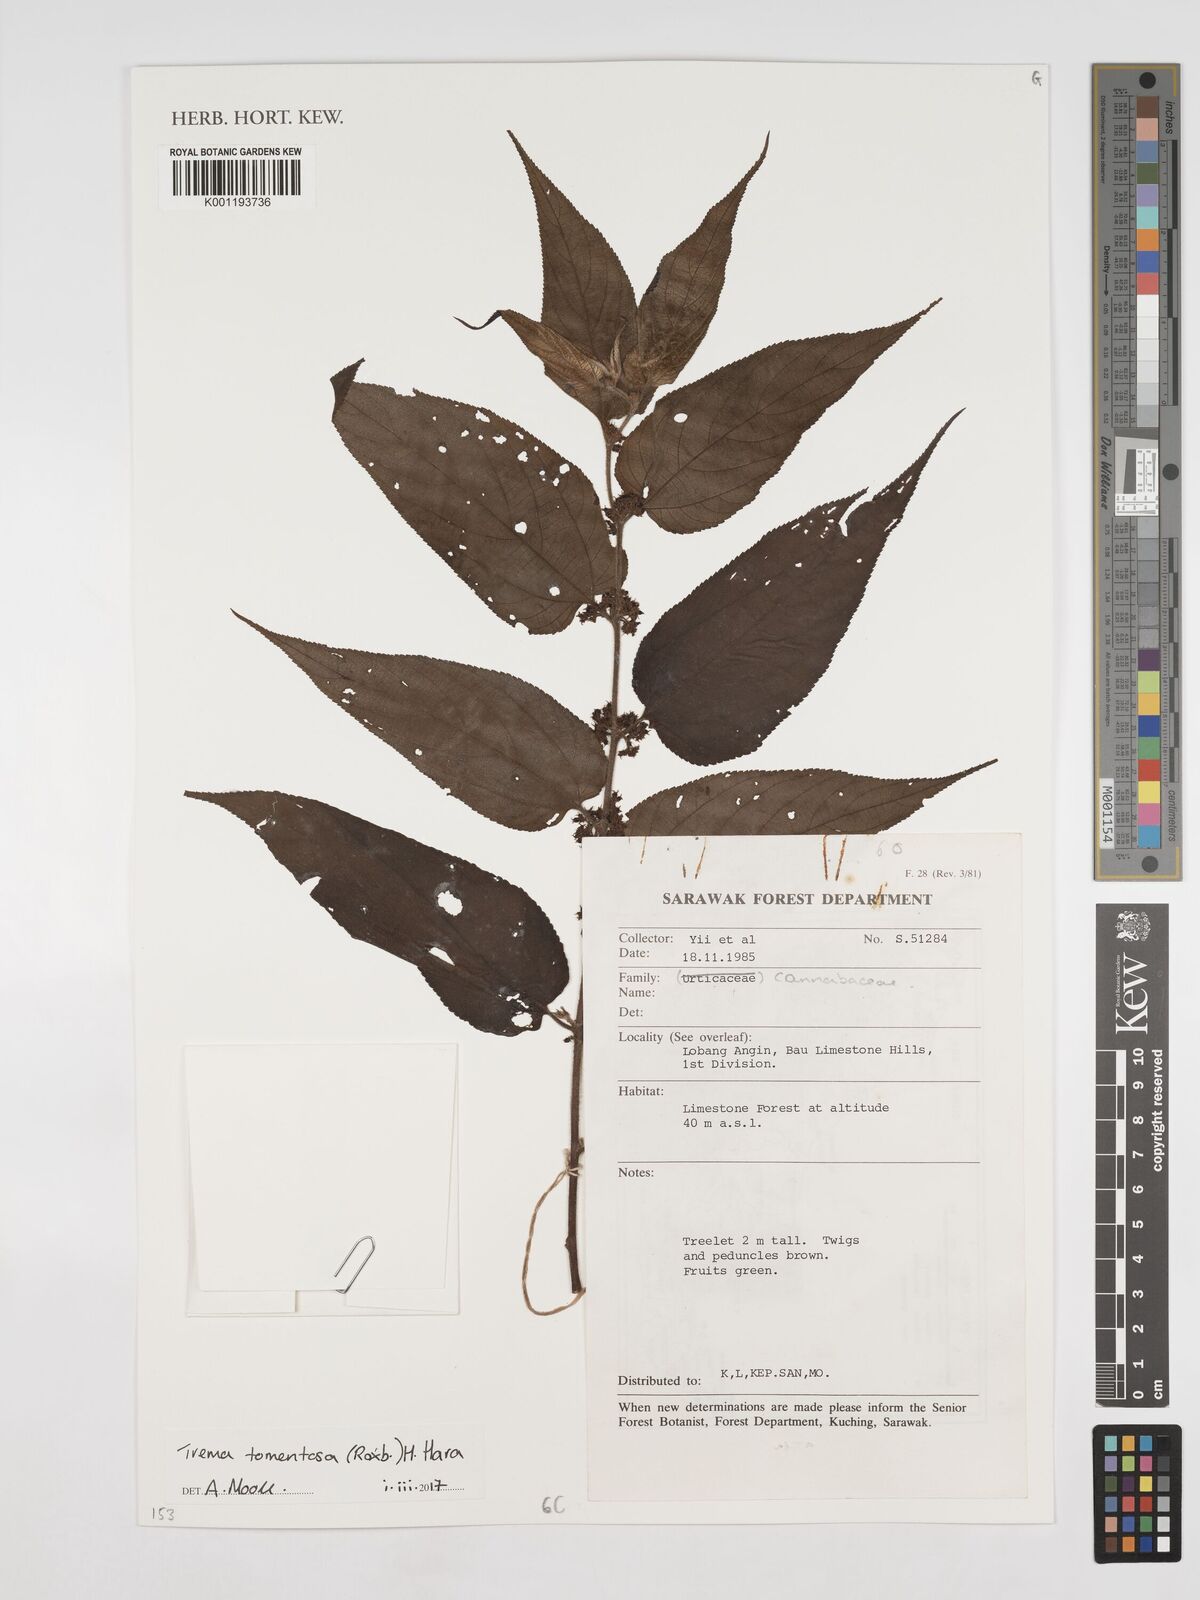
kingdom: Plantae
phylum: Tracheophyta
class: Magnoliopsida
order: Rosales
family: Cannabaceae
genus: Trema
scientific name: Trema tomentosum
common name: Peach-leaf-poisonbush
